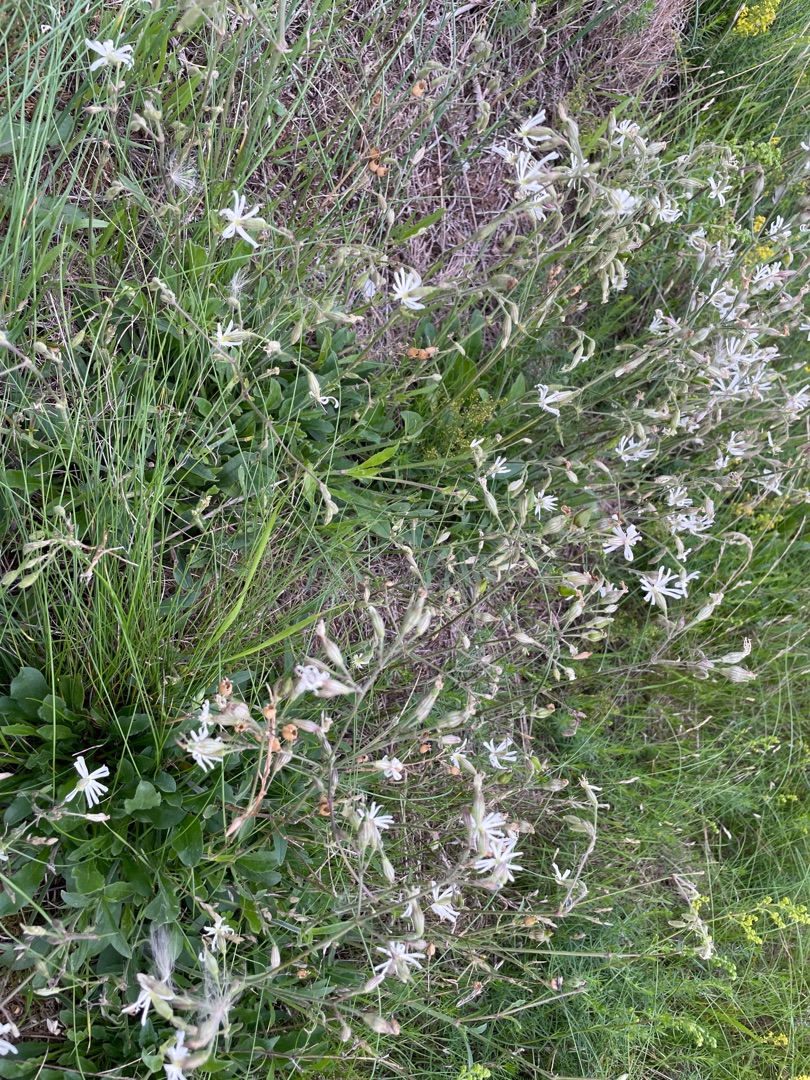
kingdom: Plantae
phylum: Tracheophyta
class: Magnoliopsida
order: Caryophyllales
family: Caryophyllaceae
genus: Silene
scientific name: Silene nutans
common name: Nikkende limurt
